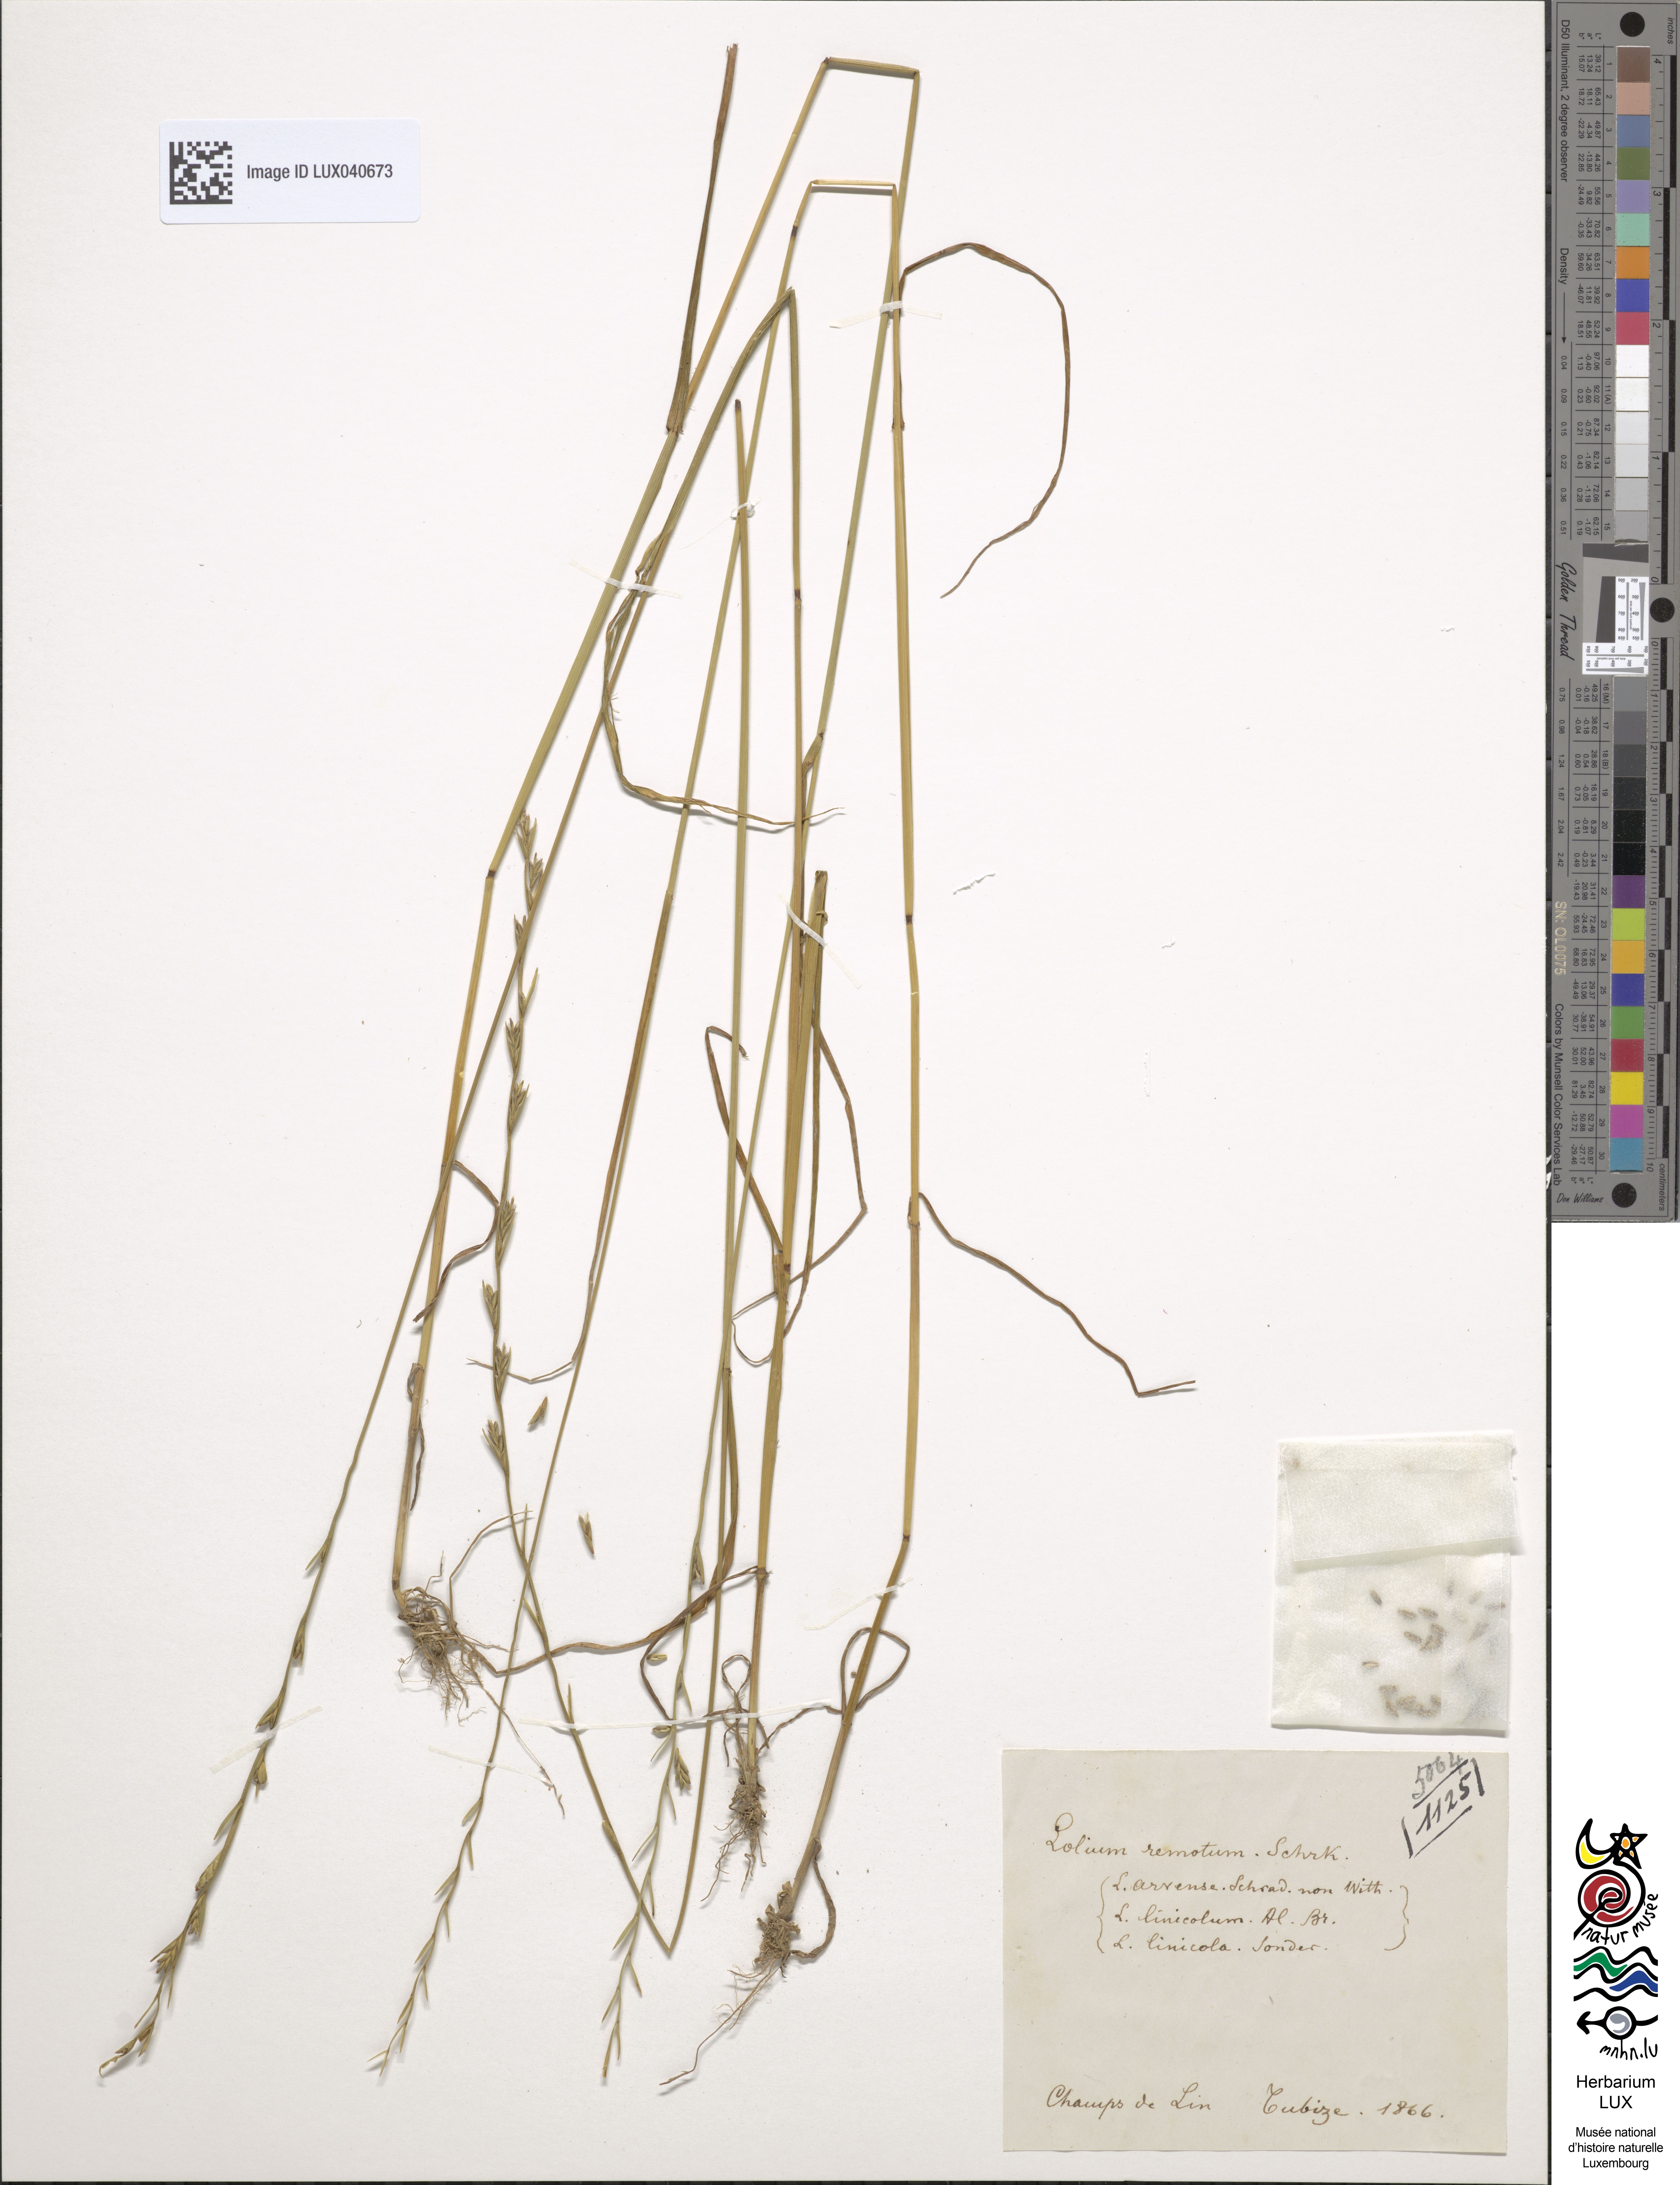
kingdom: Plantae
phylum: Tracheophyta
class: Liliopsida
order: Poales
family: Poaceae
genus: Lolium
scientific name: Lolium remotum
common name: Flaxfield rye-grass
